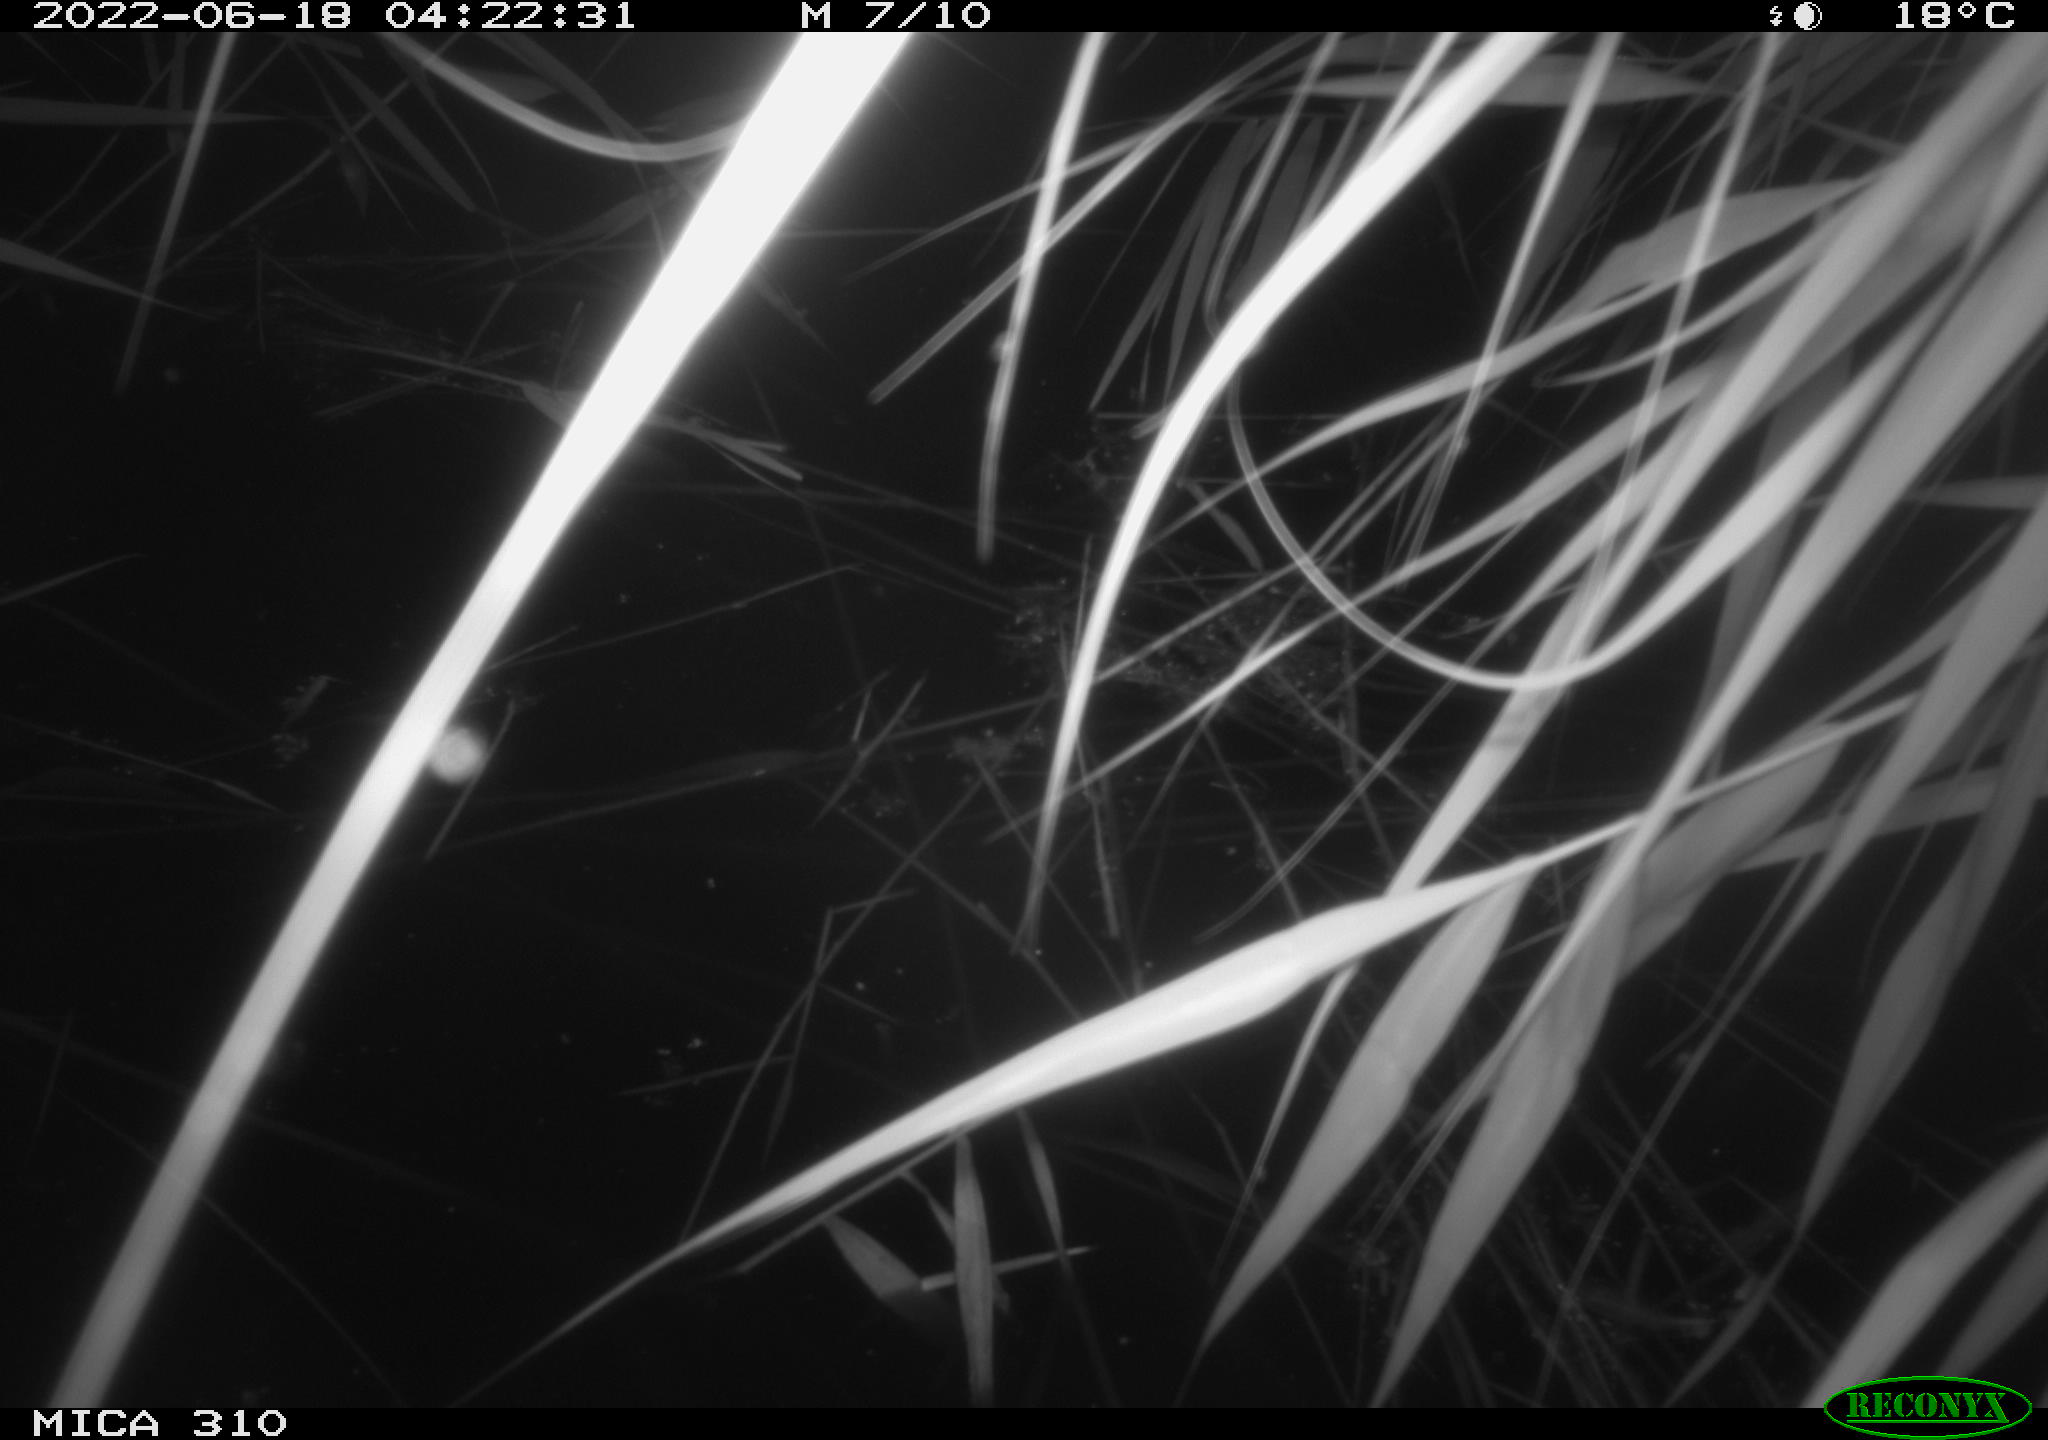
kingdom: Animalia
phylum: Chordata
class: Aves
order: Anseriformes
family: Anatidae
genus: Anas
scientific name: Anas platyrhynchos
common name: Mallard
